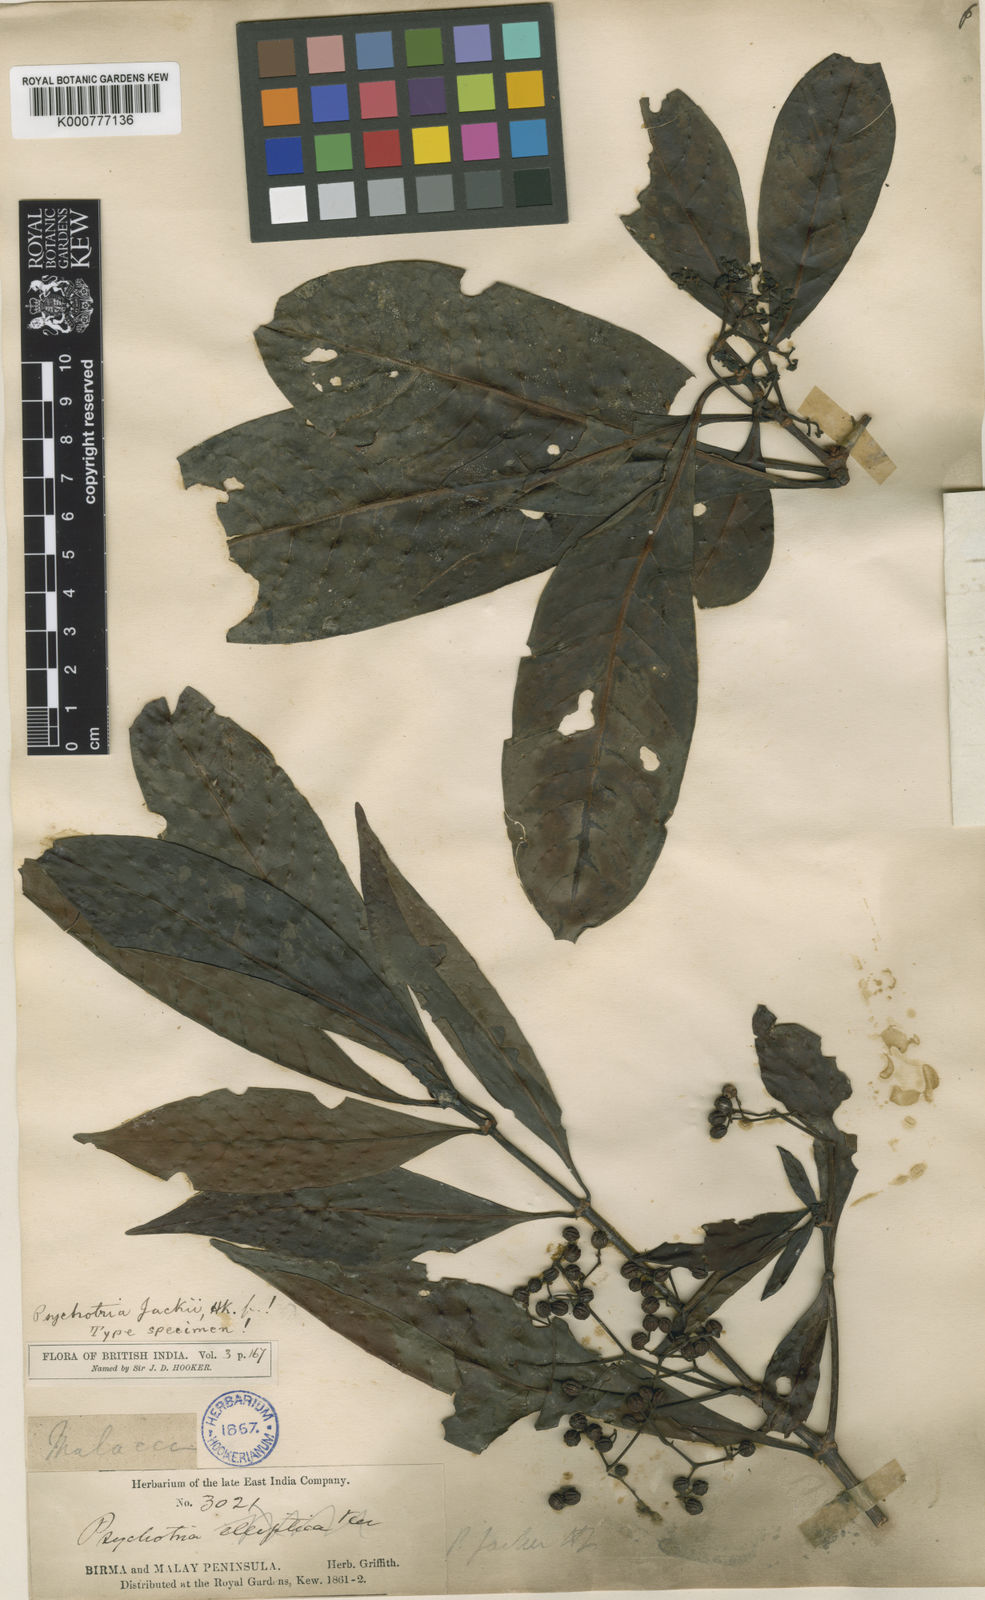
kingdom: Plantae
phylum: Tracheophyta
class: Magnoliopsida
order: Gentianales
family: Rubiaceae
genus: Psychotria
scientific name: Psychotria cuspidella
